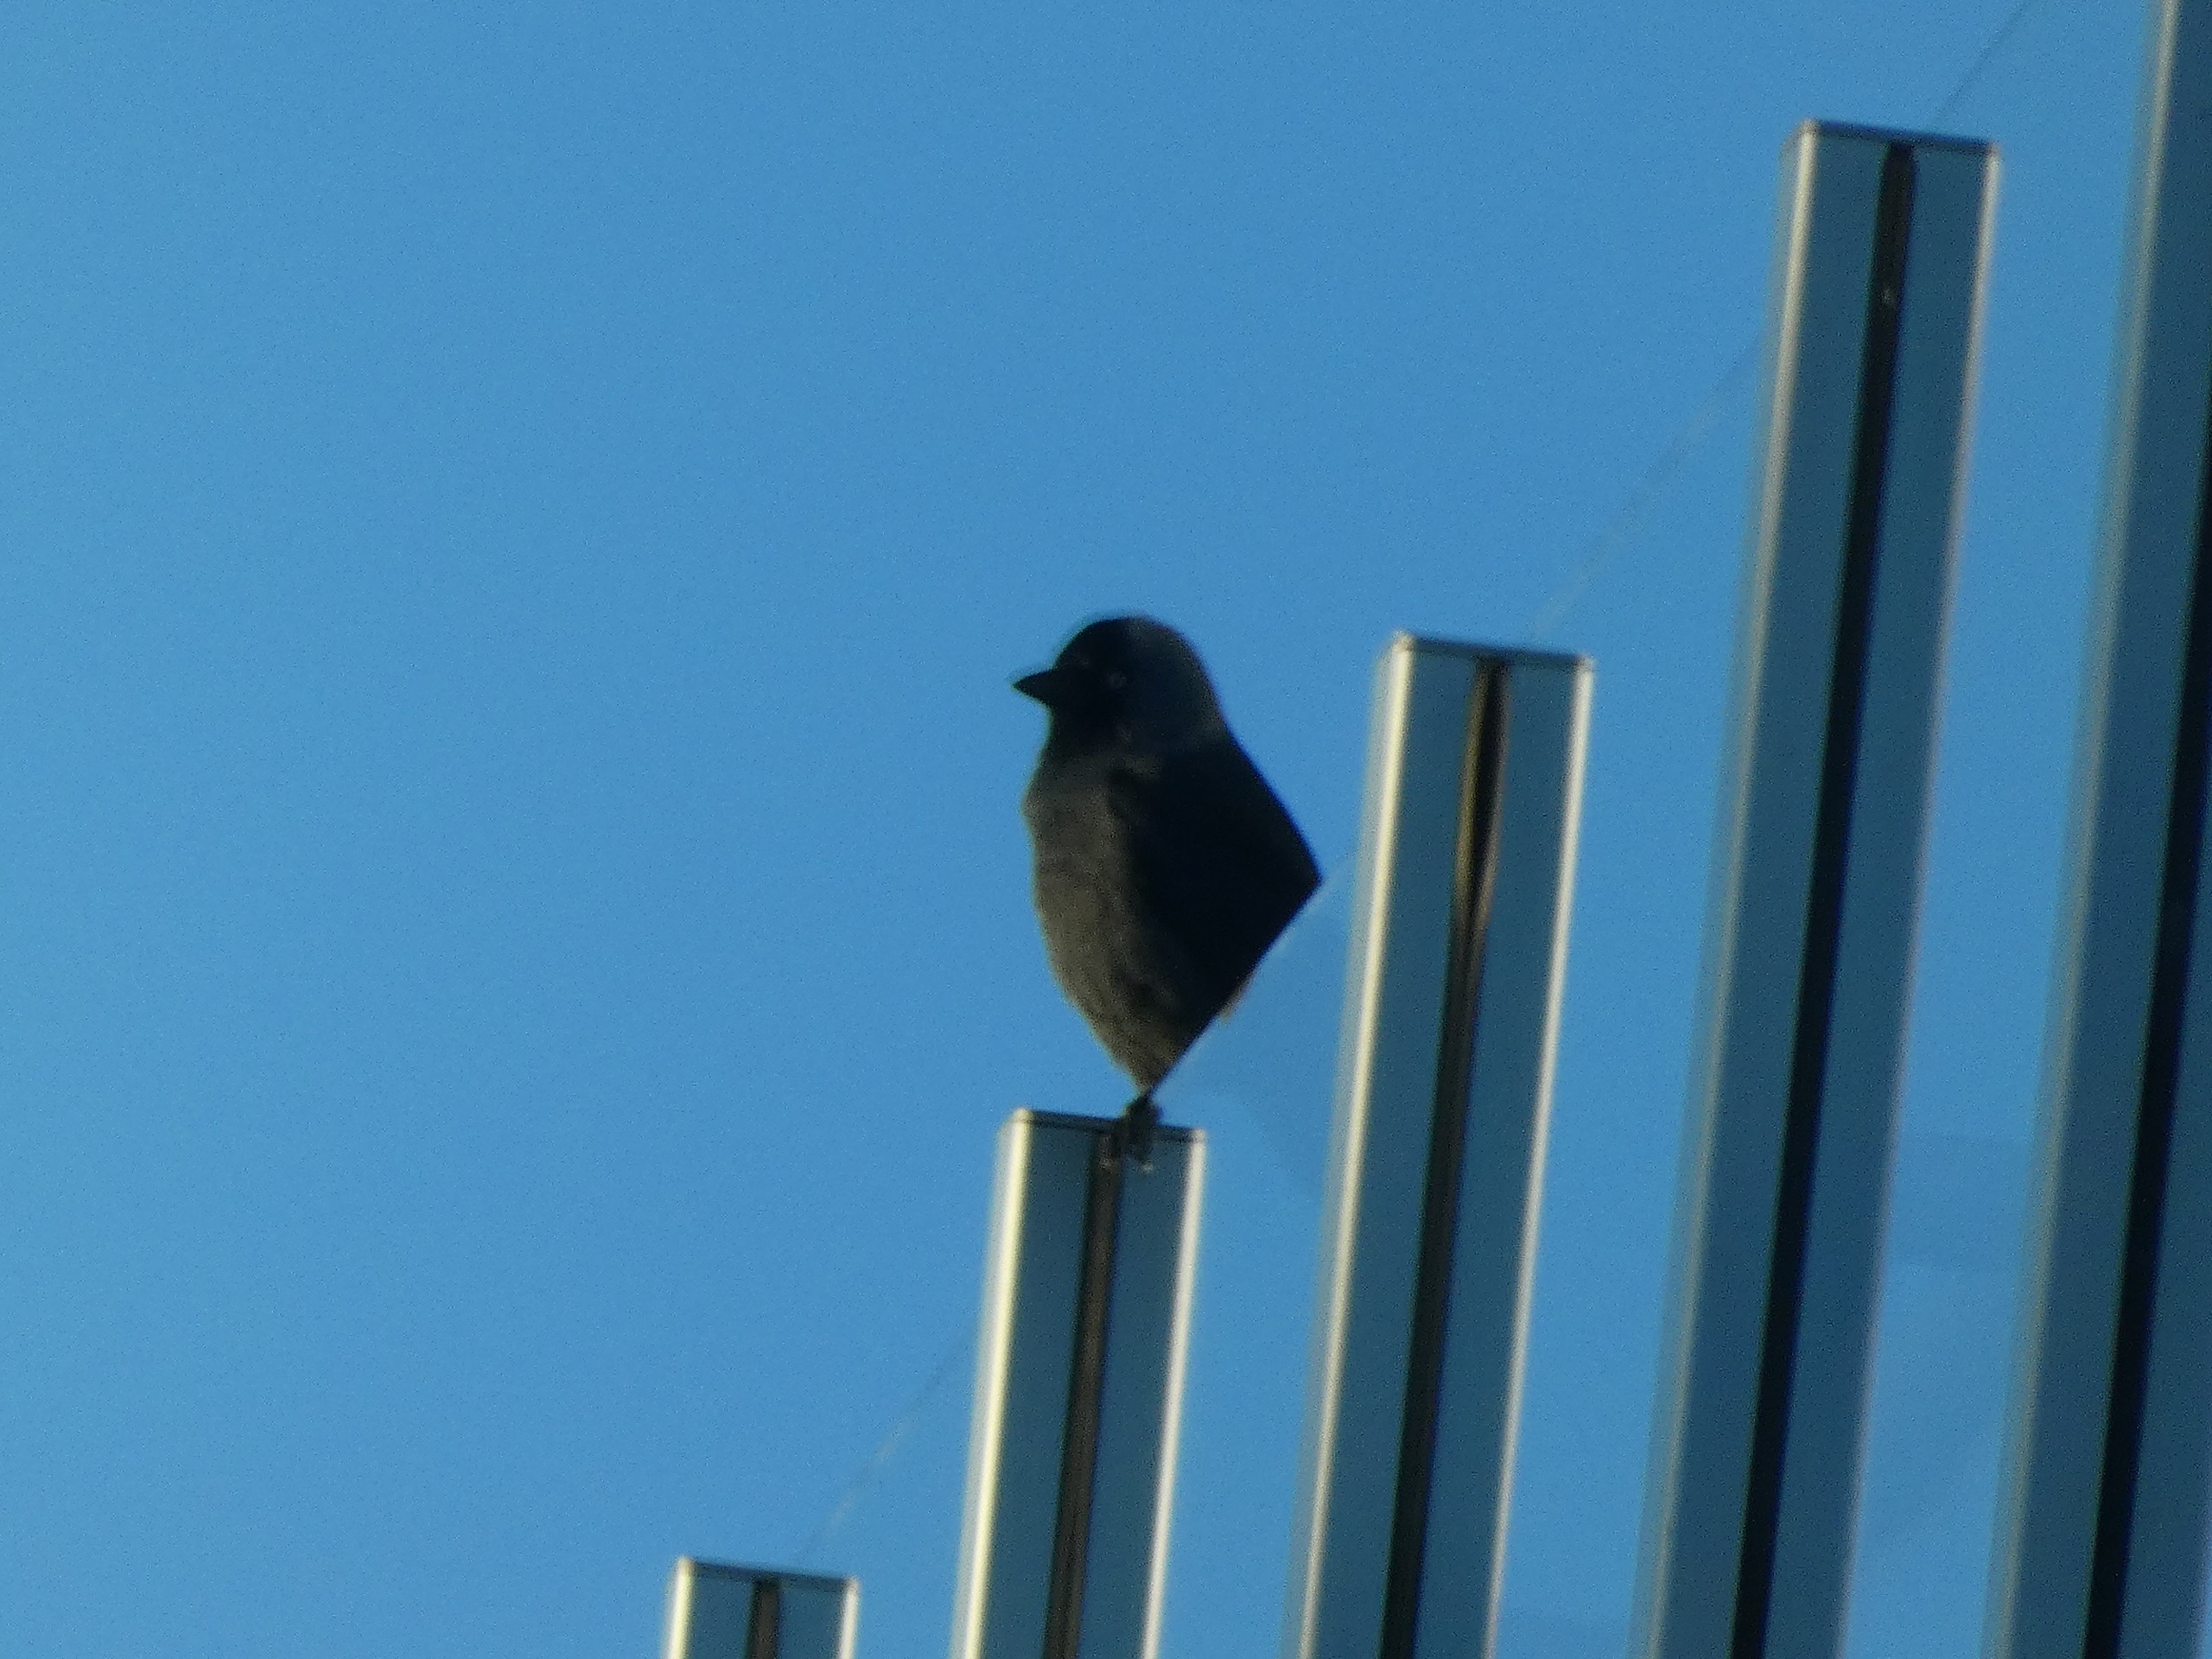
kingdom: Animalia
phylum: Chordata
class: Aves
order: Passeriformes
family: Corvidae
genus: Coloeus
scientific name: Coloeus monedula
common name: Allike
